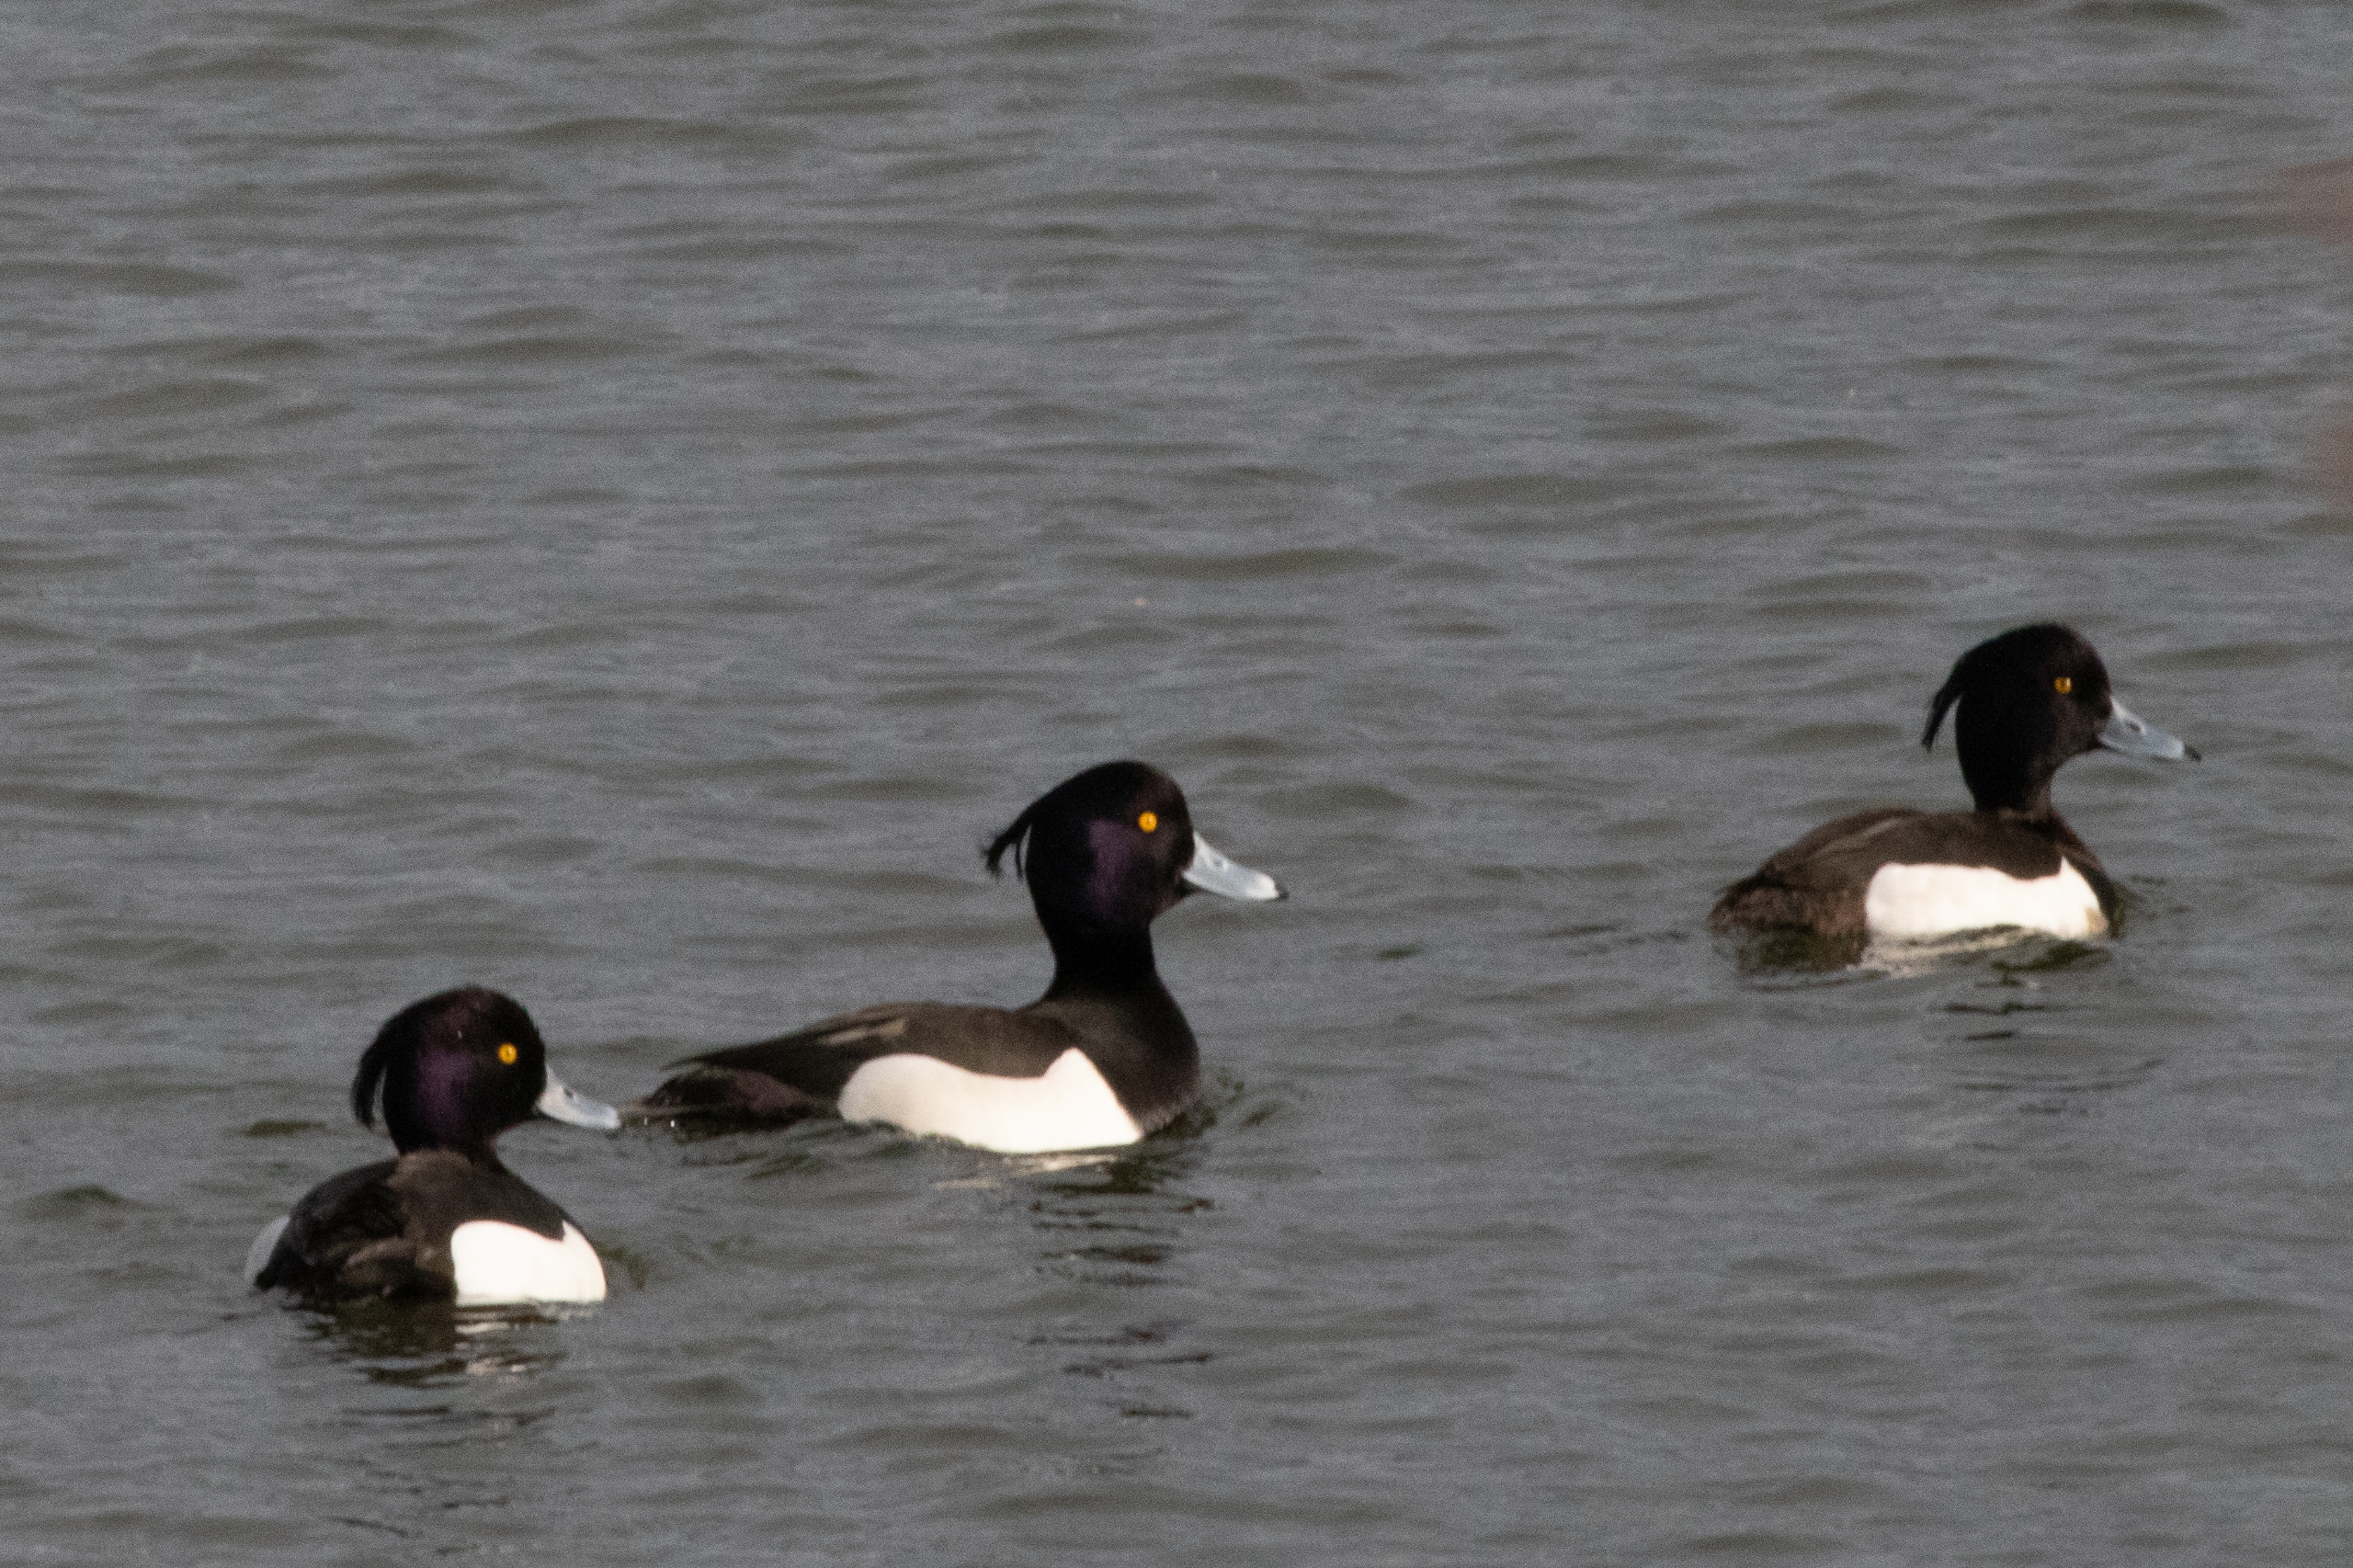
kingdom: Animalia
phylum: Chordata
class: Aves
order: Anseriformes
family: Anatidae
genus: Aythya
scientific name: Aythya fuligula
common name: Troldand
